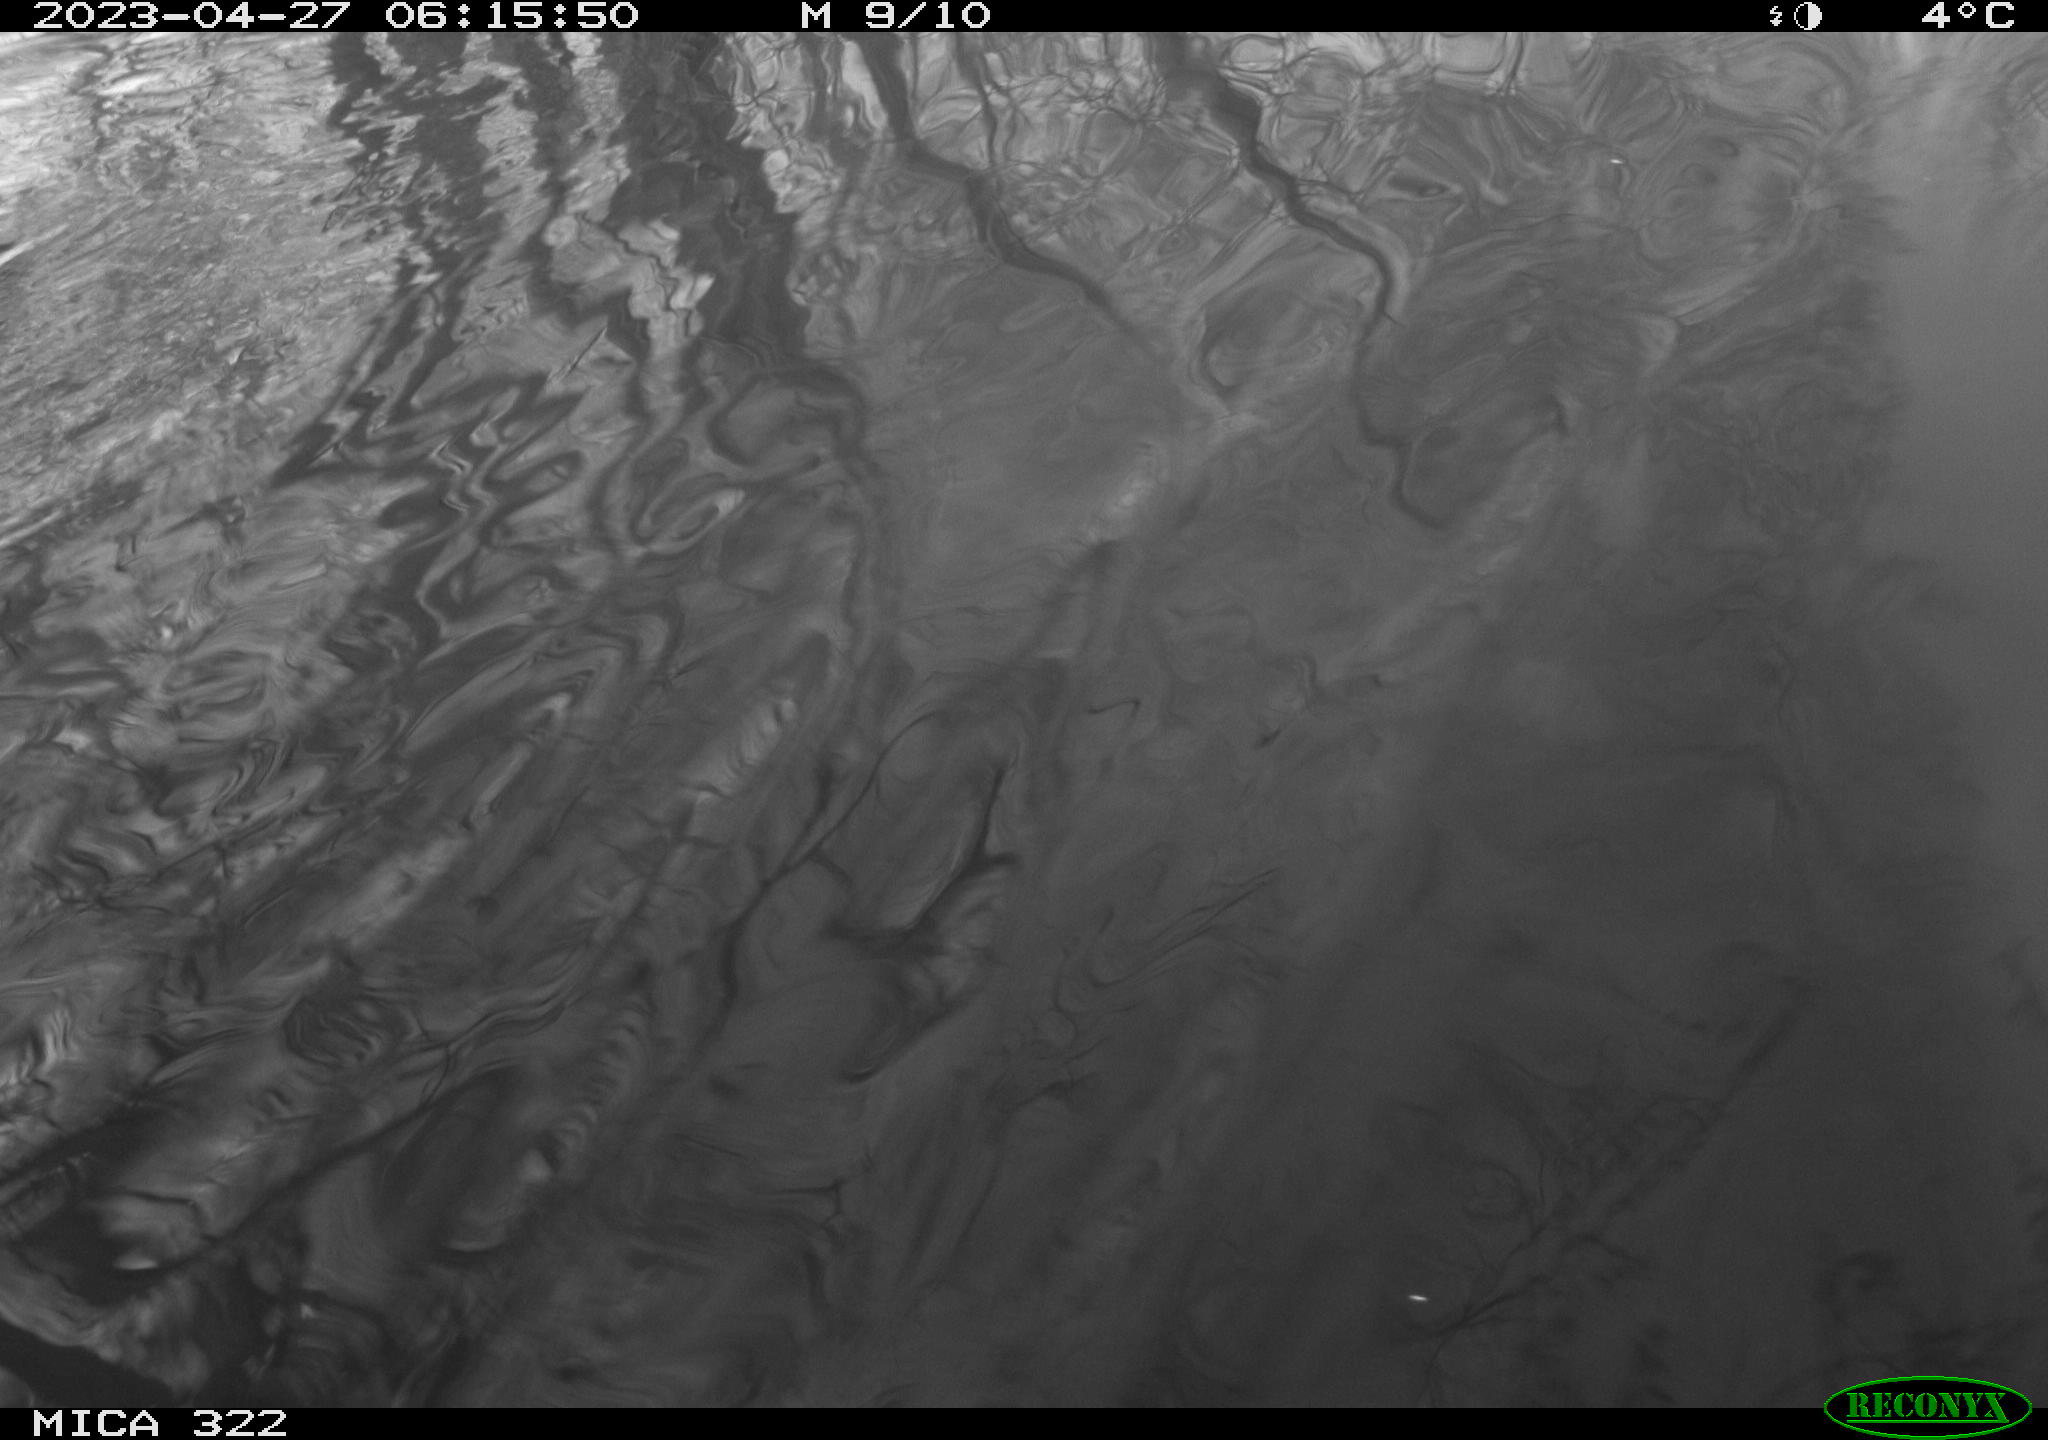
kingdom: Animalia
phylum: Chordata
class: Aves
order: Anseriformes
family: Anatidae
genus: Anser
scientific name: Anser anser
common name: Greylag goose
